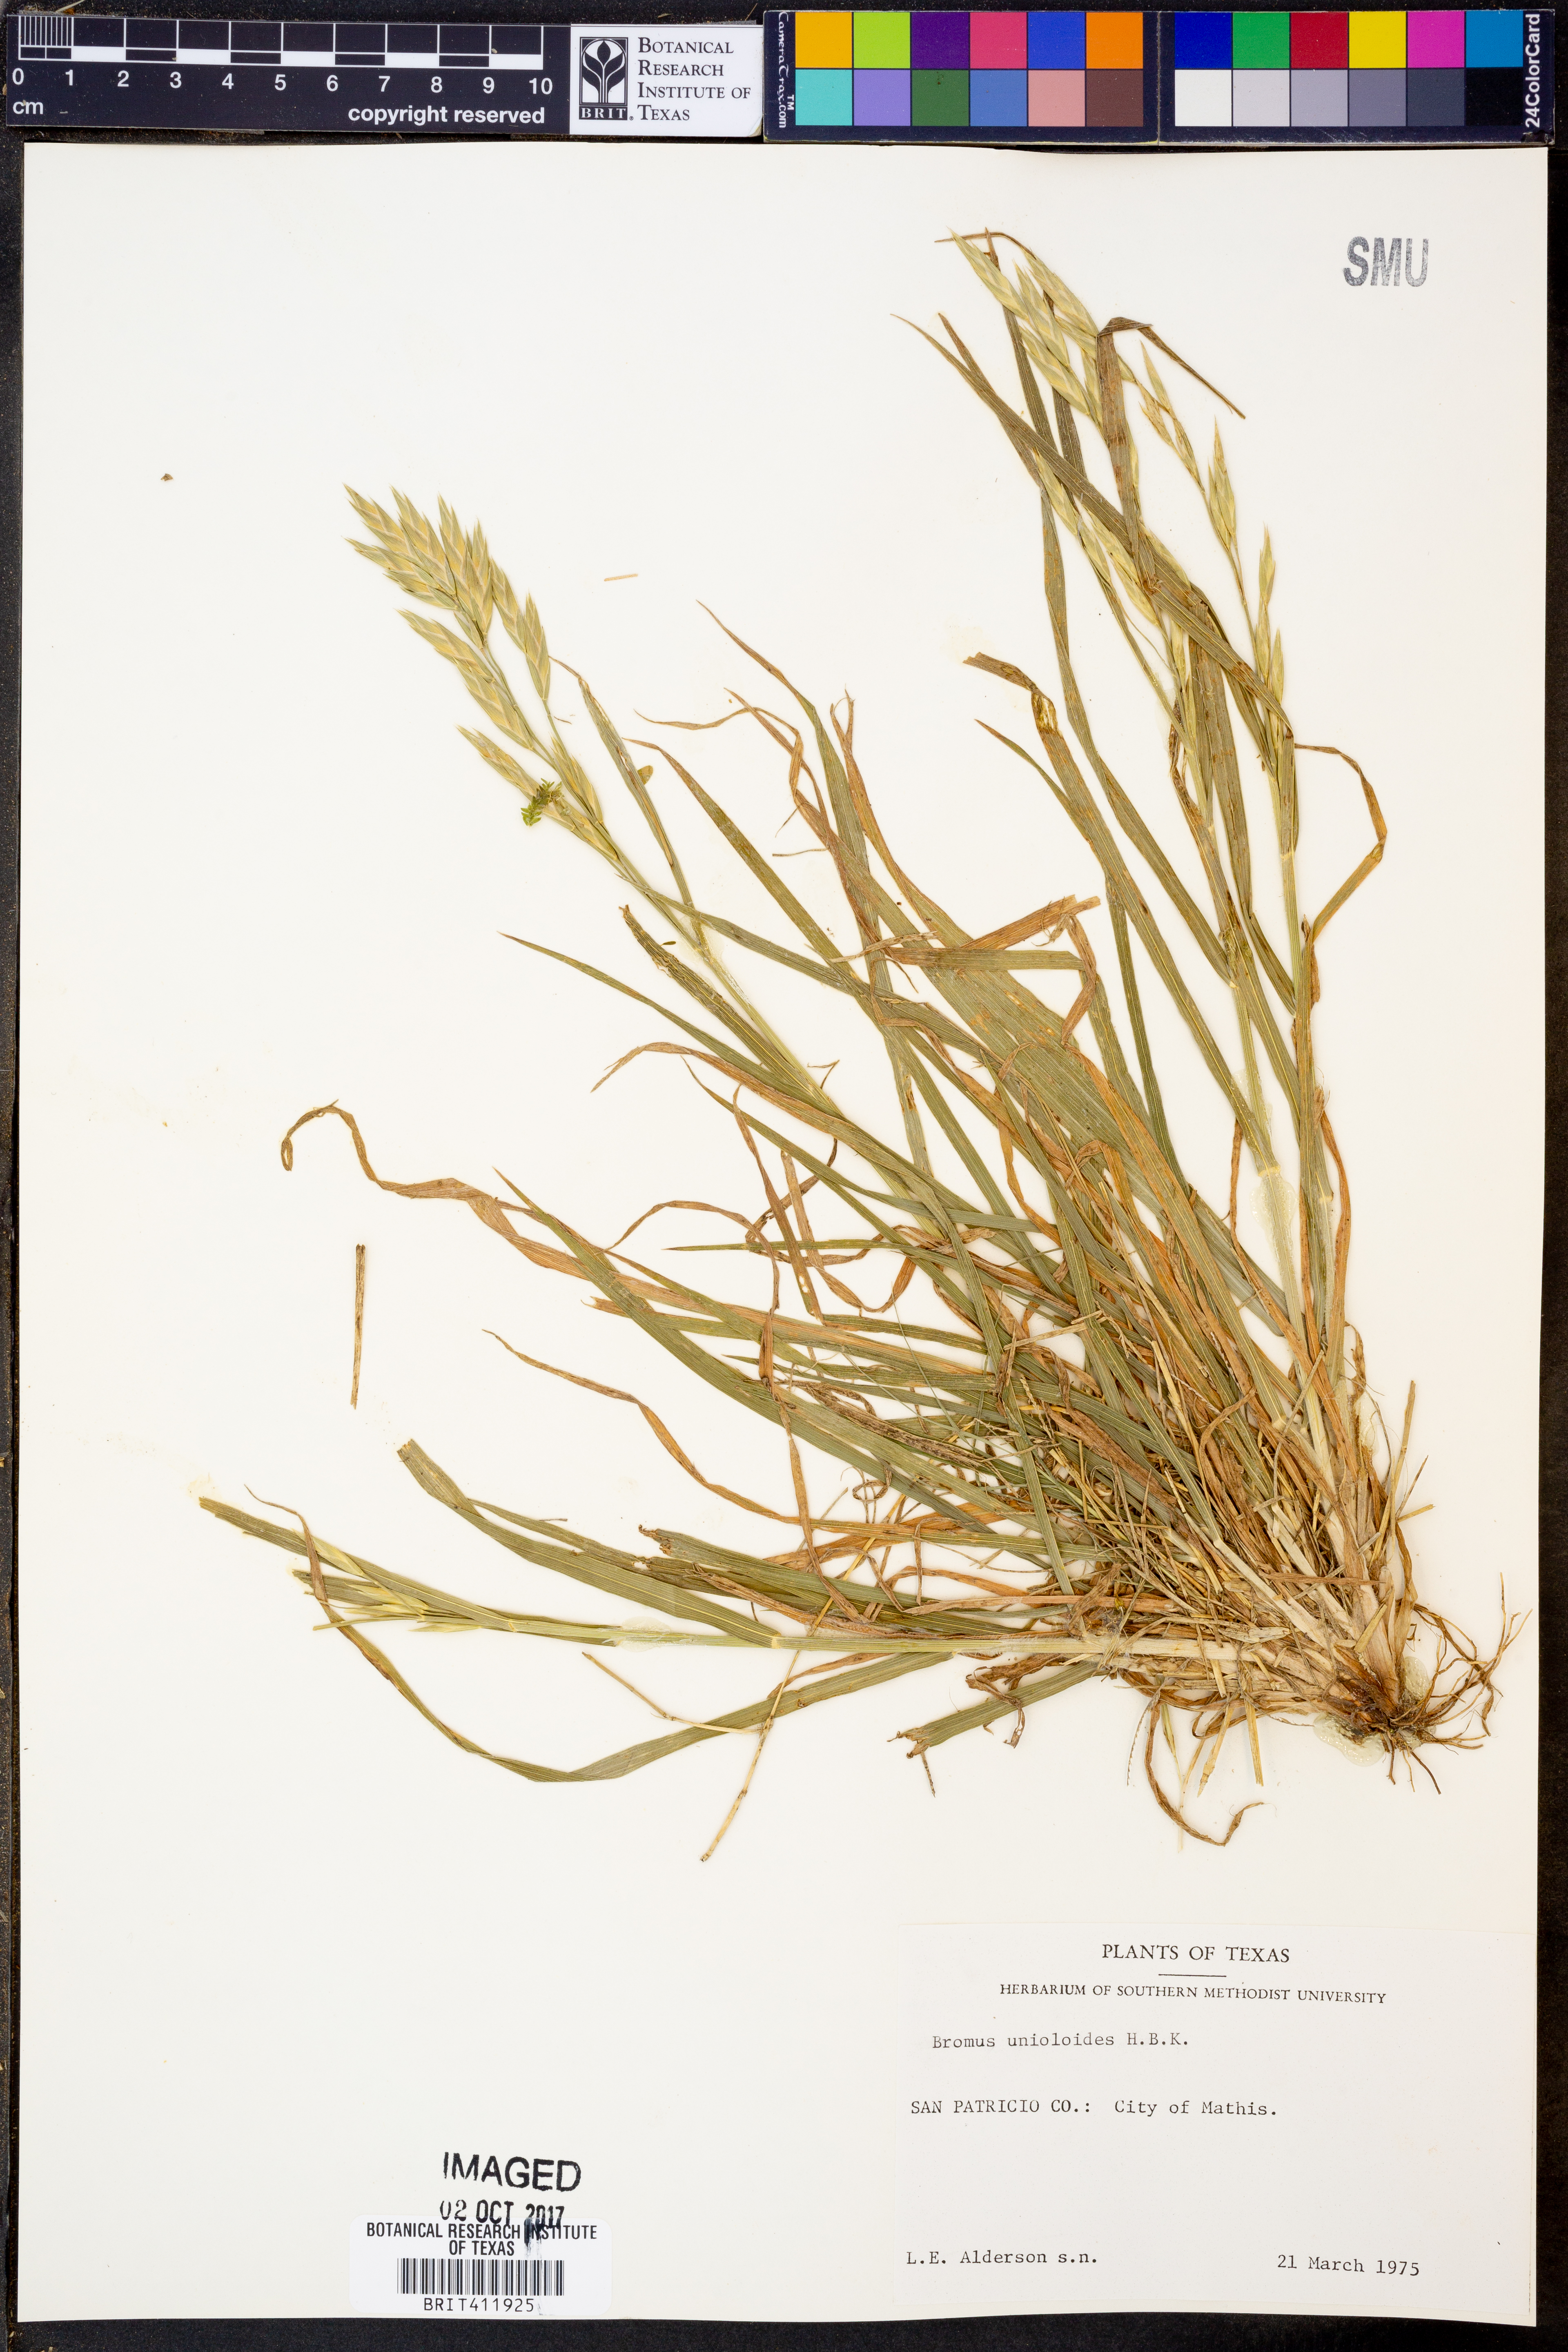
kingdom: Plantae
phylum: Tracheophyta
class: Liliopsida
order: Poales
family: Poaceae
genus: Bromus
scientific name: Bromus catharticus
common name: Rescuegrass
